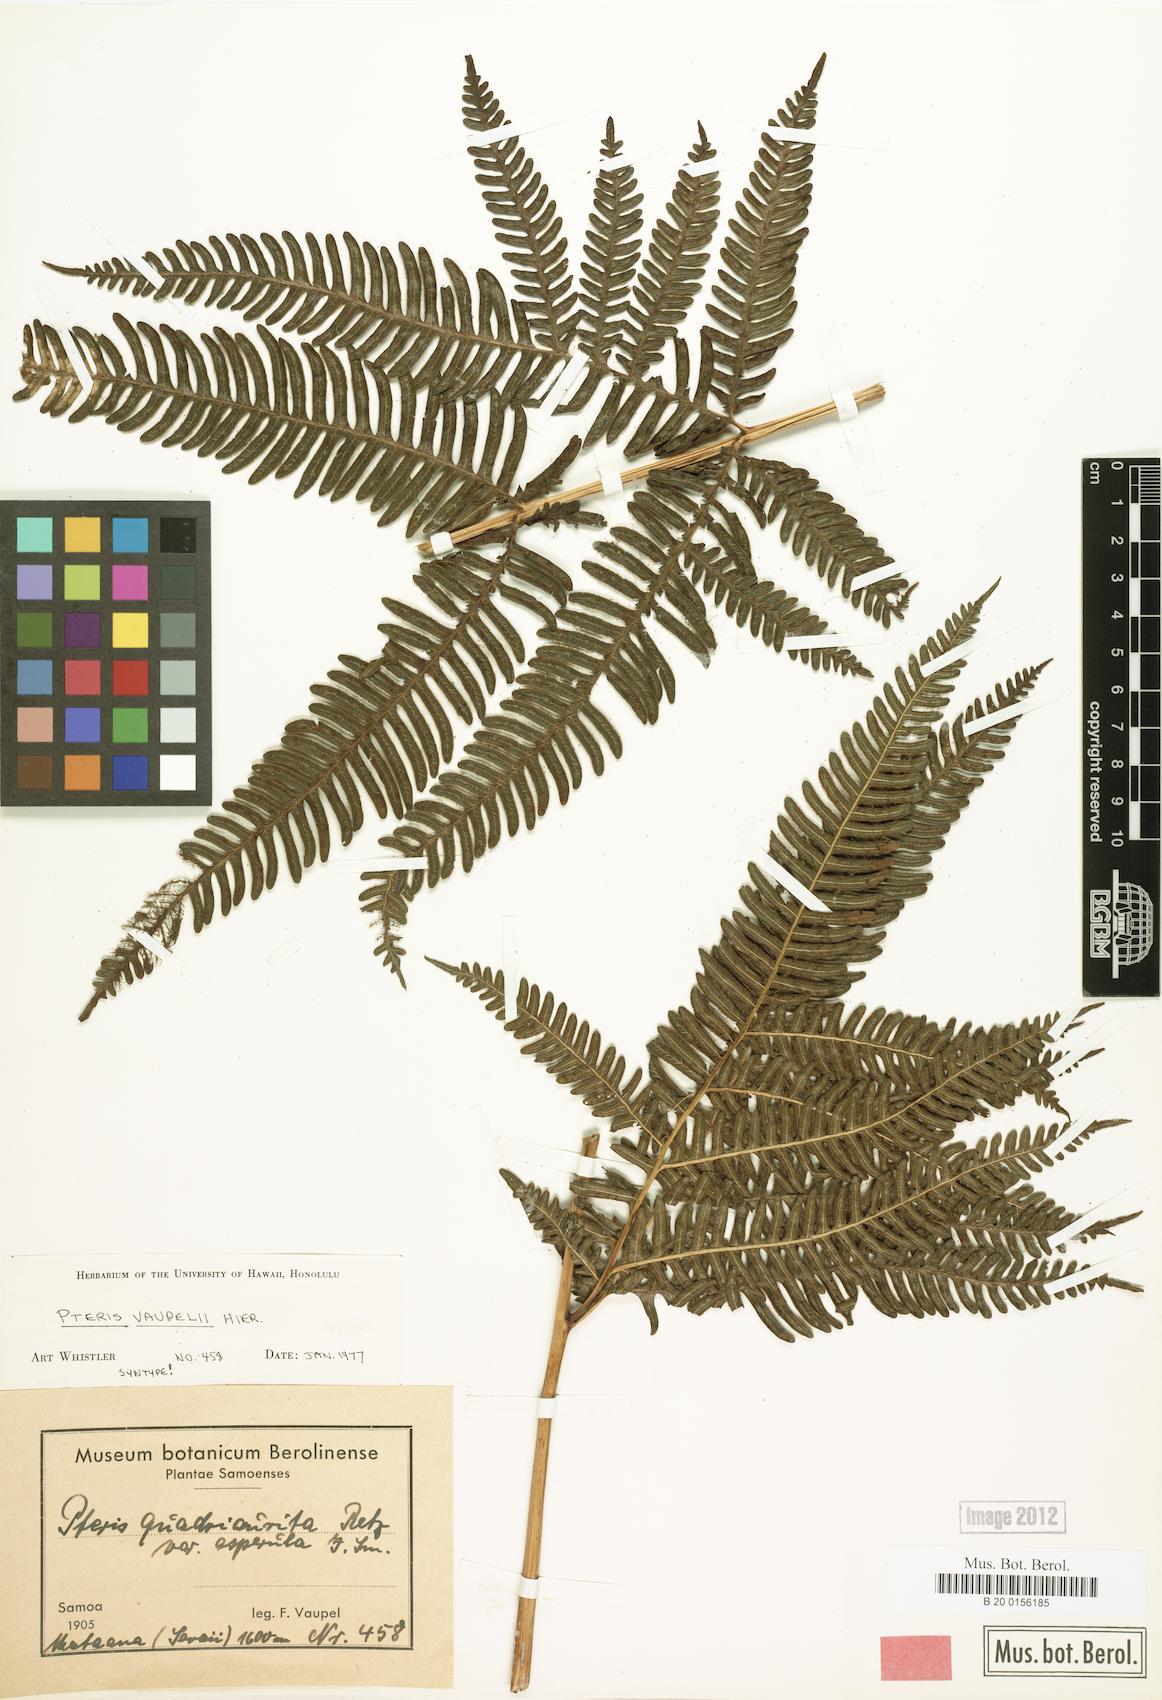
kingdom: Plantae
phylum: Tracheophyta
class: Polypodiopsida
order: Polypodiales
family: Pteridaceae
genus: Pteris
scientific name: Pteris vaupelii
